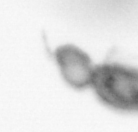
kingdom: Animalia
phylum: Arthropoda
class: Copepoda
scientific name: Copepoda
